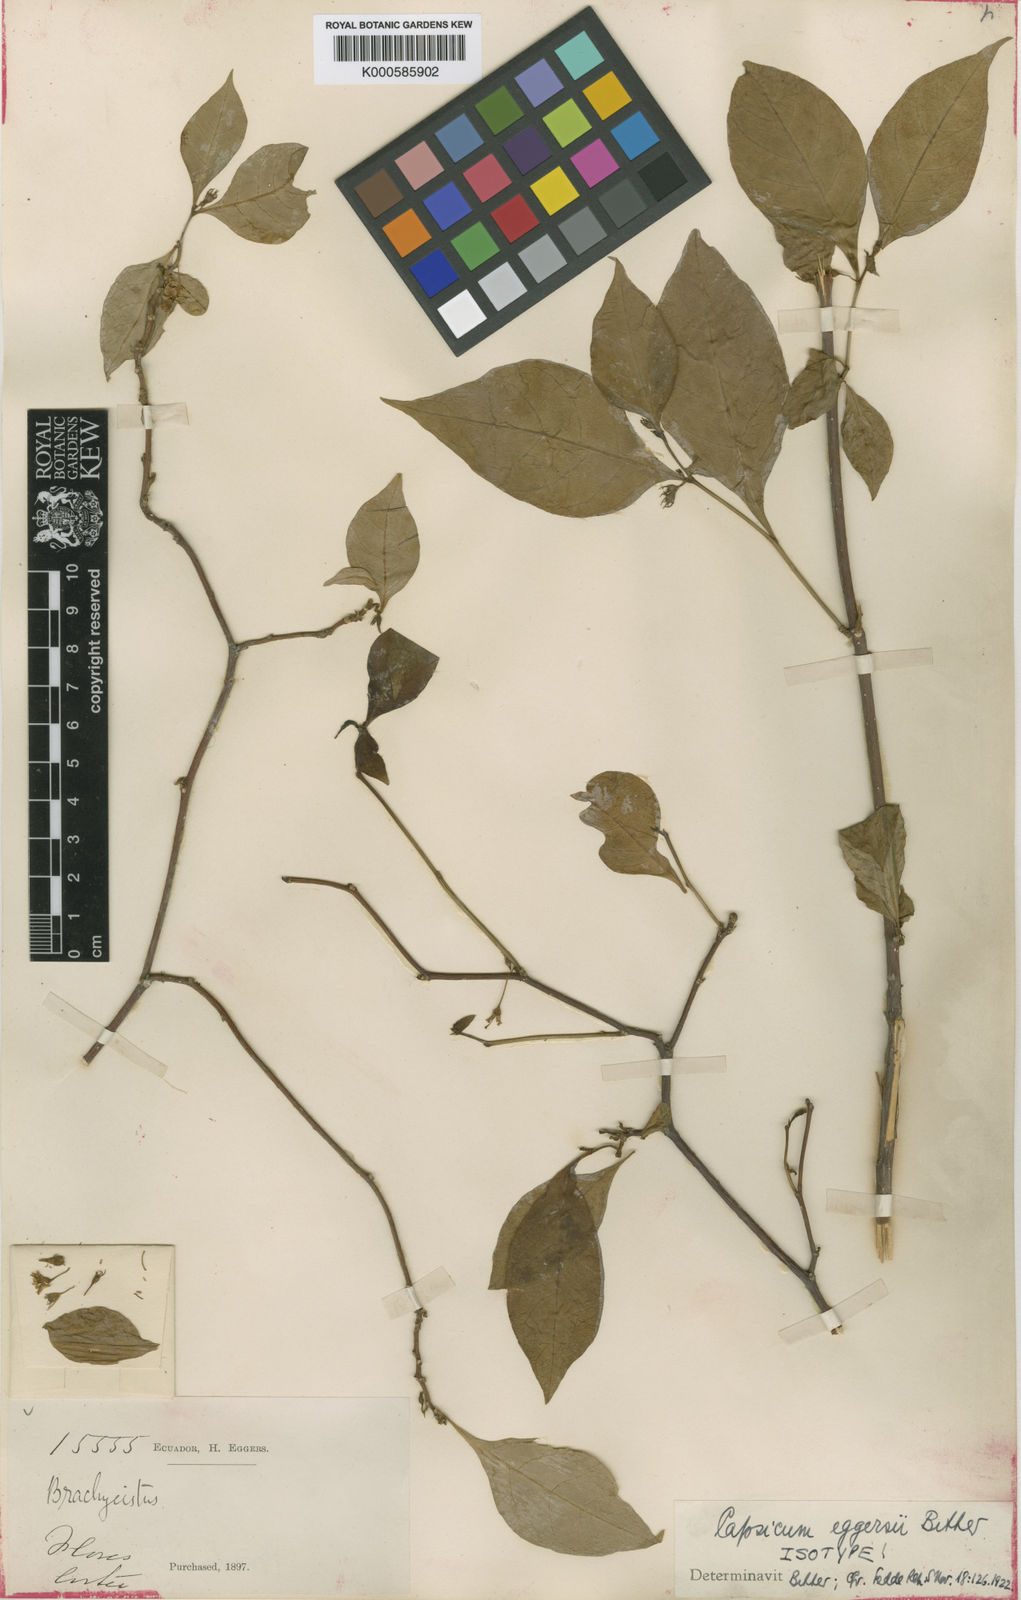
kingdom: Plantae
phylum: Tracheophyta
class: Magnoliopsida
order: Solanales
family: Solanaceae
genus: Capsicum
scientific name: Capsicum hookerianum
